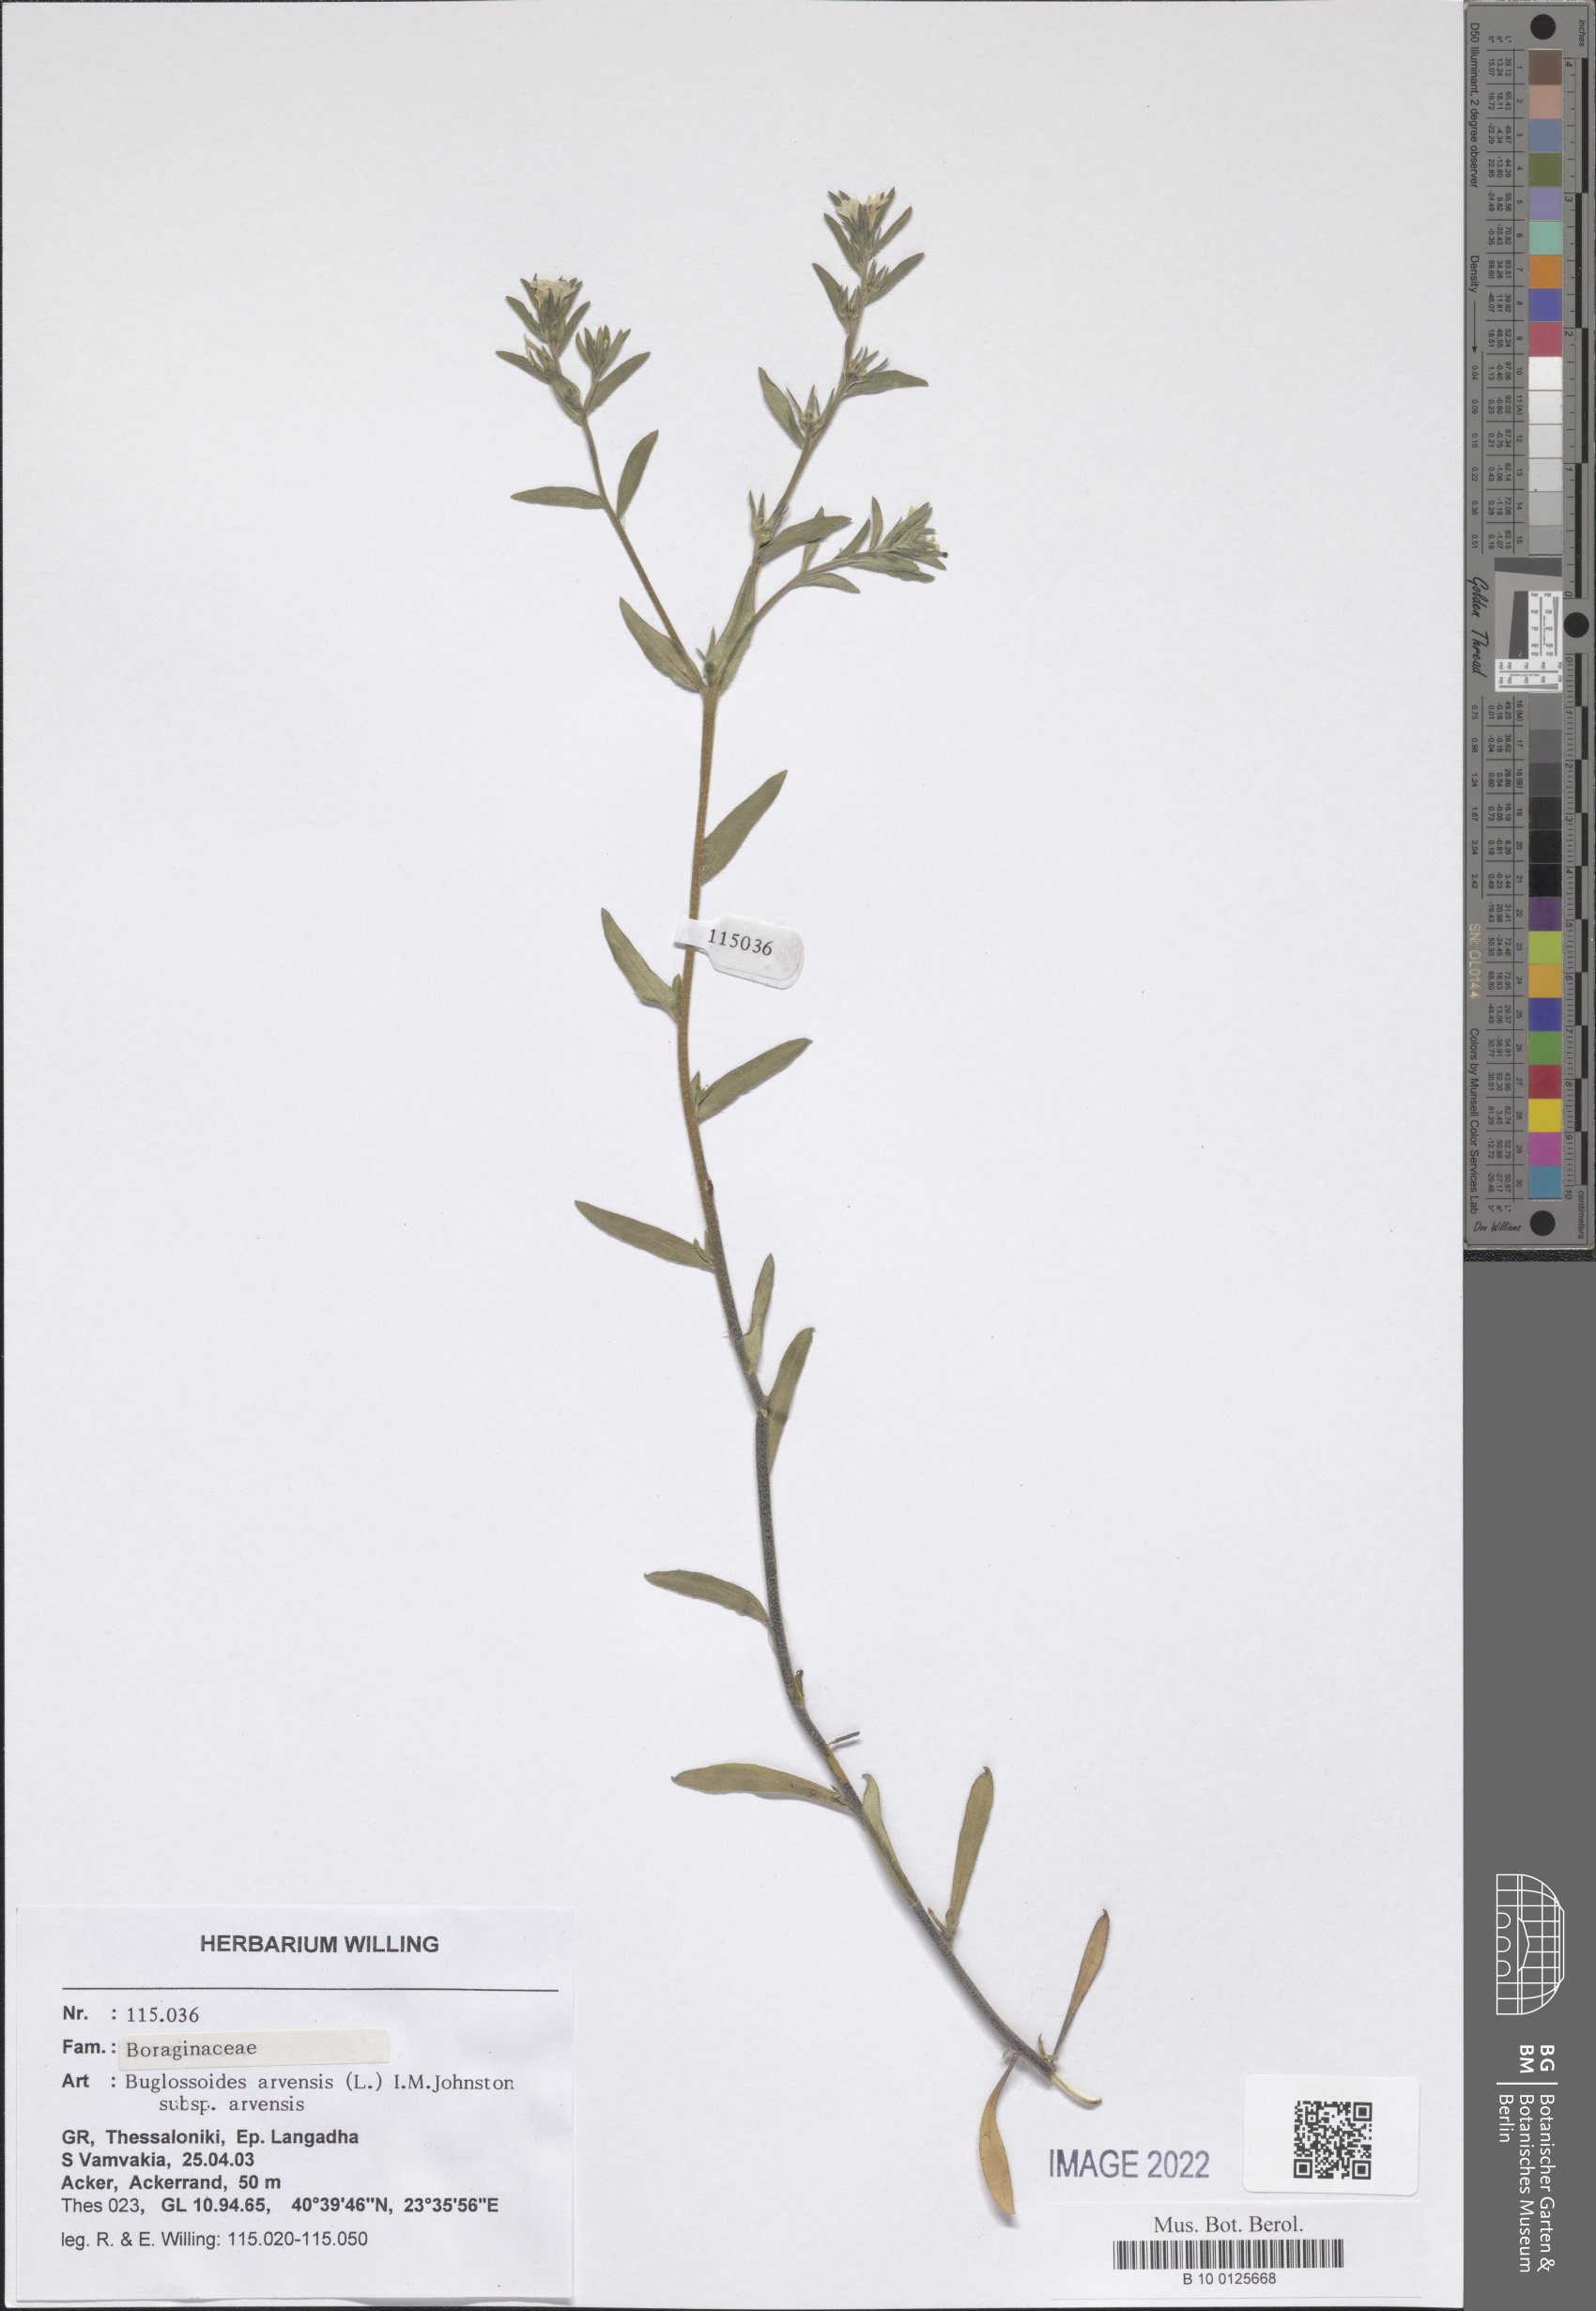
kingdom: Plantae
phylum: Tracheophyta
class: Magnoliopsida
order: Boraginales
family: Boraginaceae
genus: Buglossoides
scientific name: Buglossoides arvensis
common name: Corn gromwell
